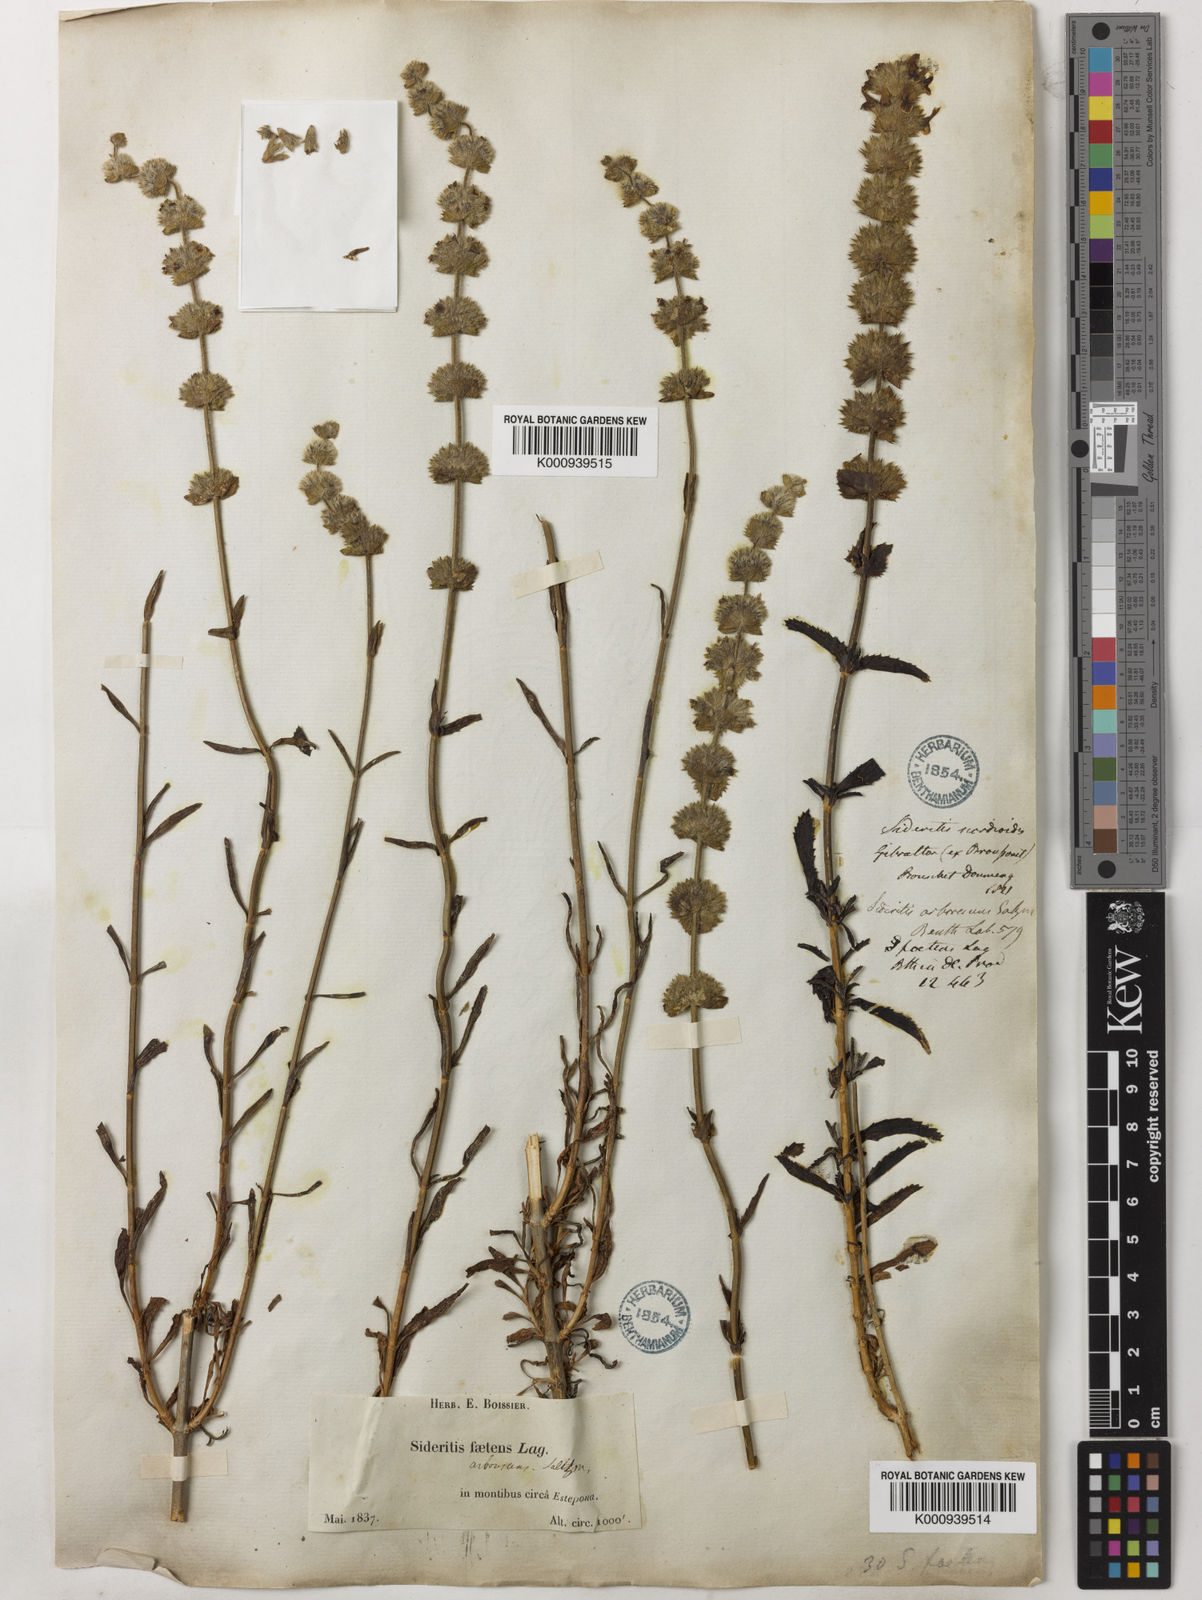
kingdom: Plantae
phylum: Tracheophyta
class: Magnoliopsida
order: Lamiales
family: Lamiaceae
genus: Sideritis
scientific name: Sideritis arborescens
